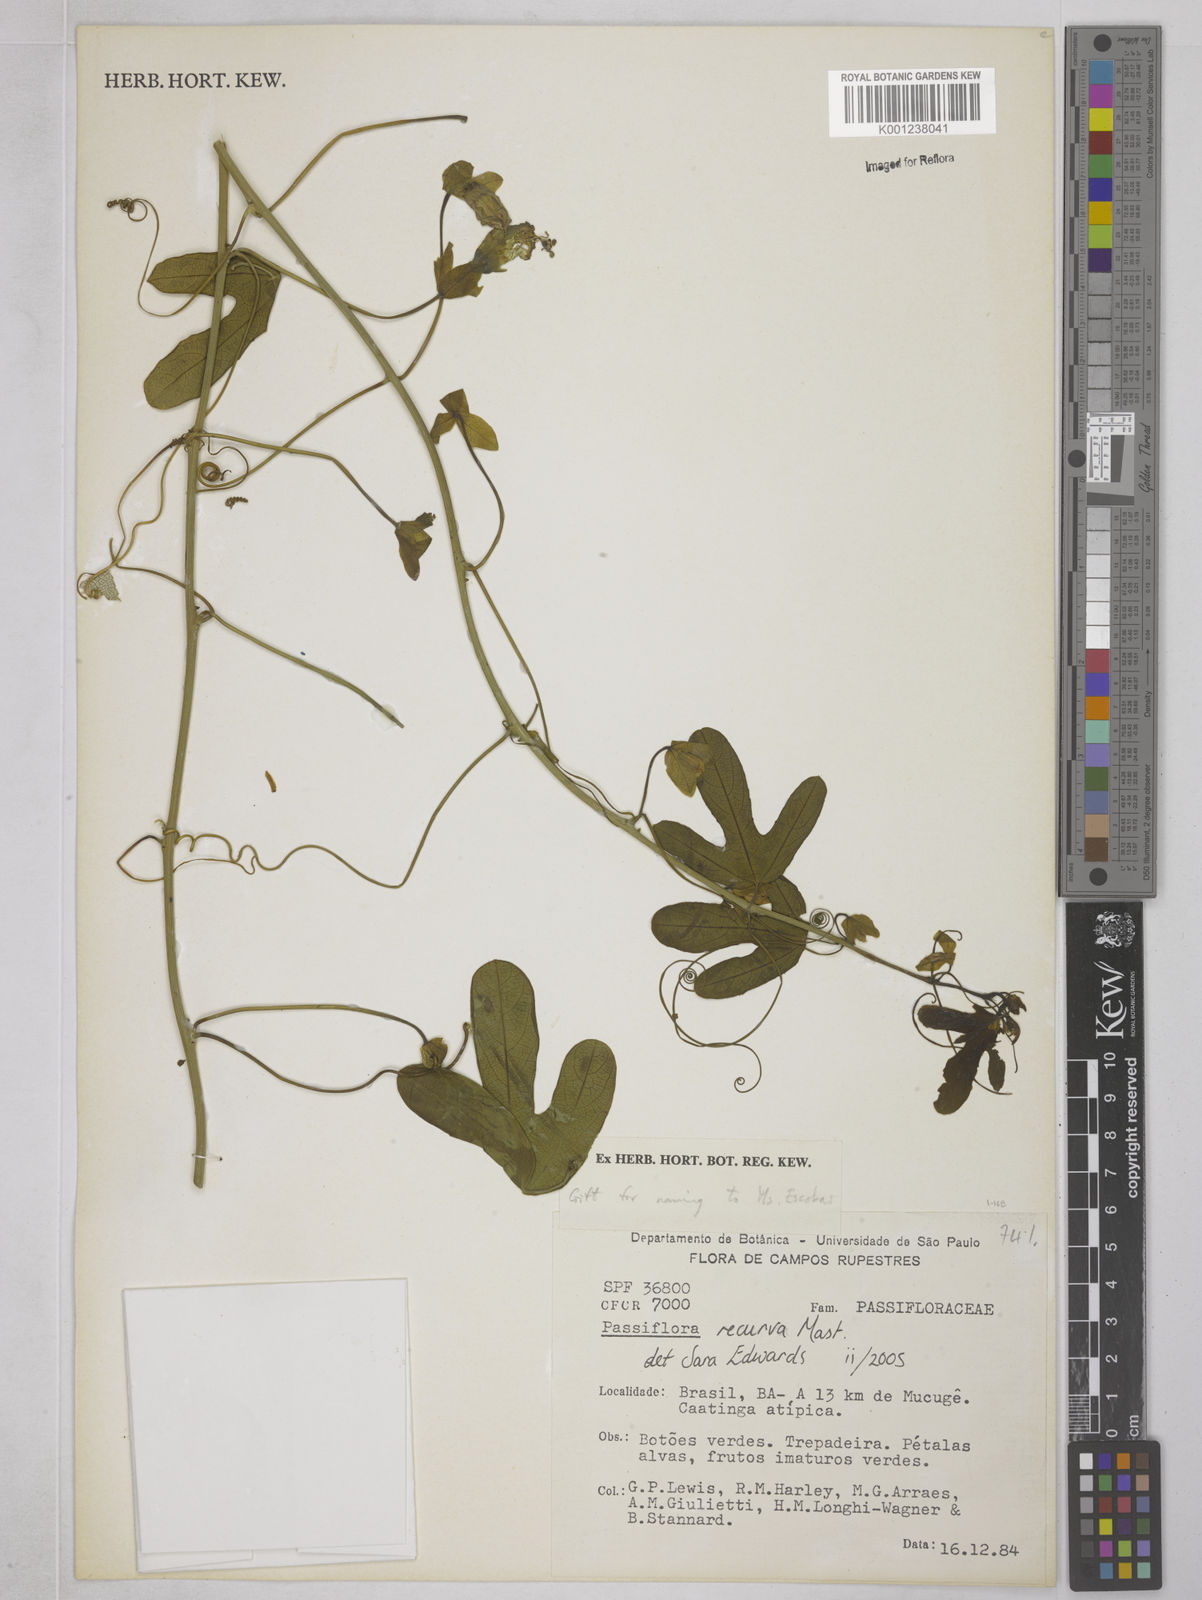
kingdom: Plantae
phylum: Tracheophyta
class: Magnoliopsida
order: Malpighiales
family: Passifloraceae
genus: Passiflora
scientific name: Passiflora recurva
